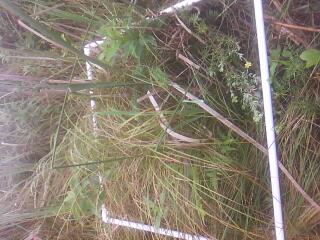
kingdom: Plantae
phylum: Tracheophyta
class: Liliopsida
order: Asparagales
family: Asparagaceae
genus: Maianthemum
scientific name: Maianthemum stellatum
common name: Little false solomon's seal
